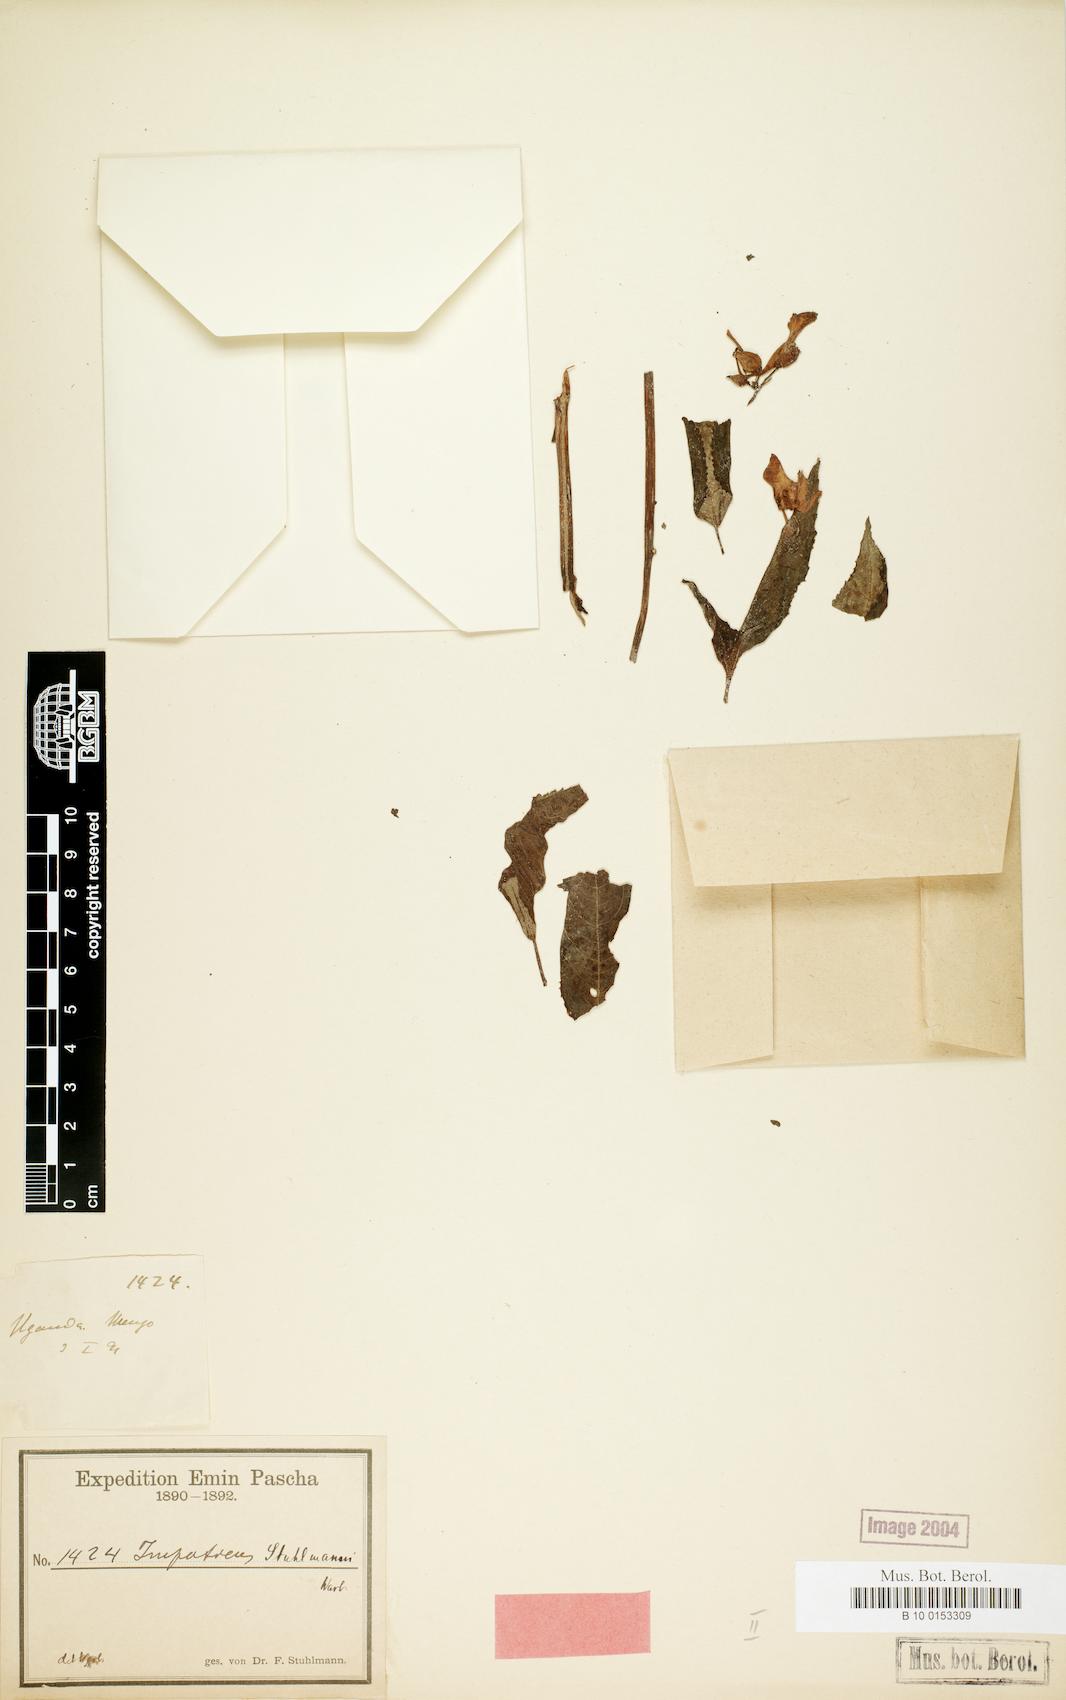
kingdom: Plantae
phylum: Tracheophyta
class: Magnoliopsida
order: Ericales
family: Balsaminaceae
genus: Impatiens
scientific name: Impatiens stuhlmannii
